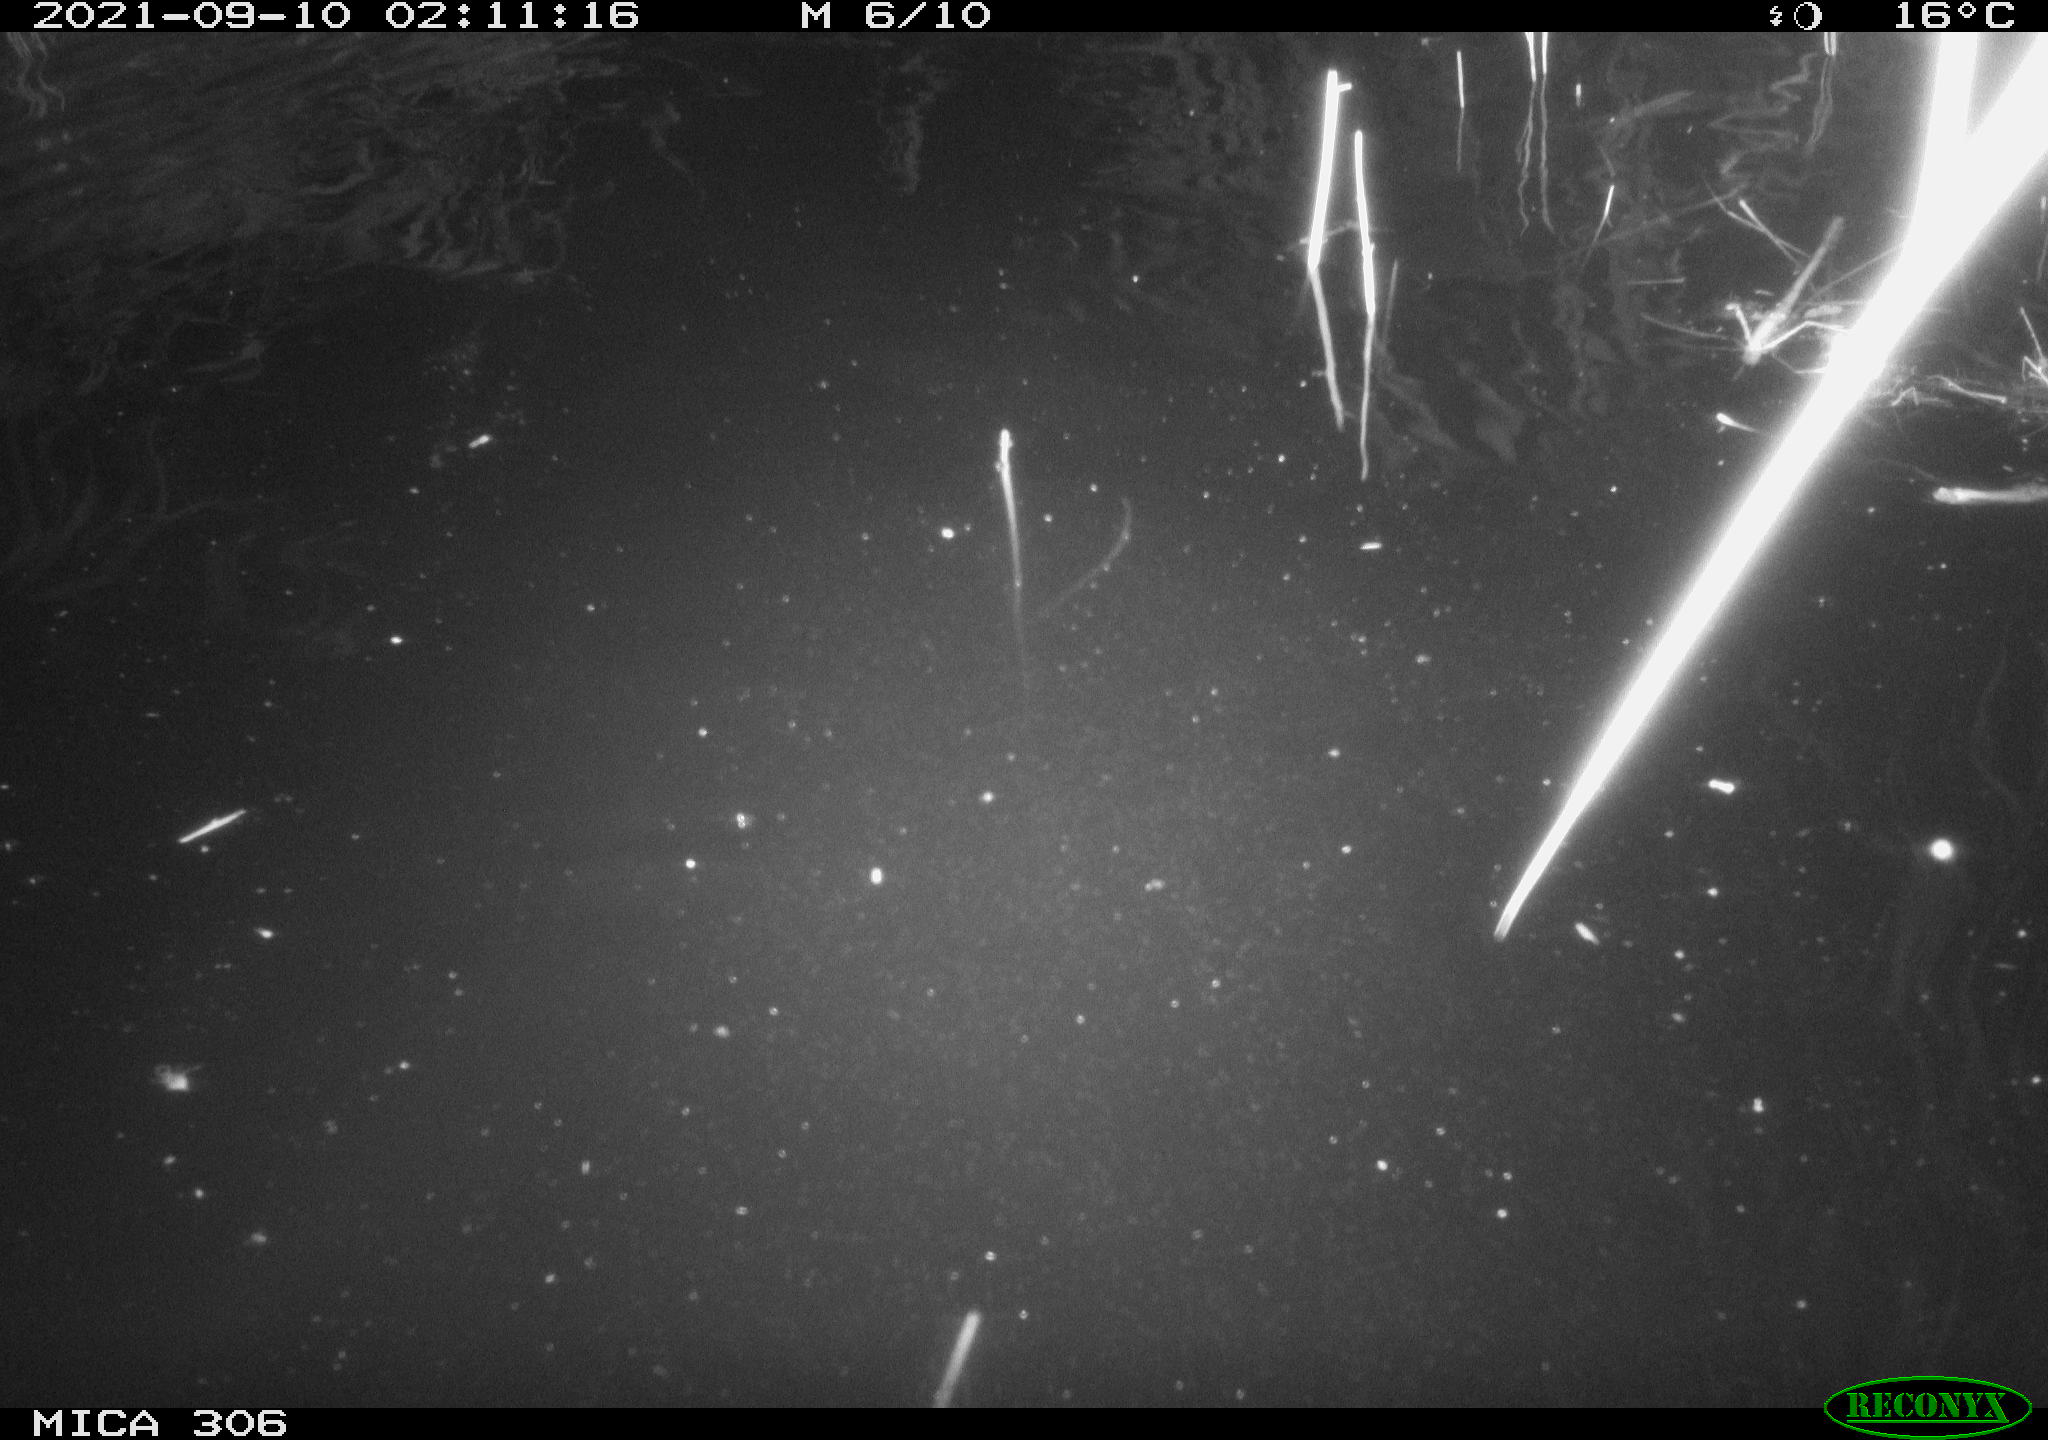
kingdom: Animalia
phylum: Chordata
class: Mammalia
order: Rodentia
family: Cricetidae
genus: Ondatra
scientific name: Ondatra zibethicus
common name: Muskrat
